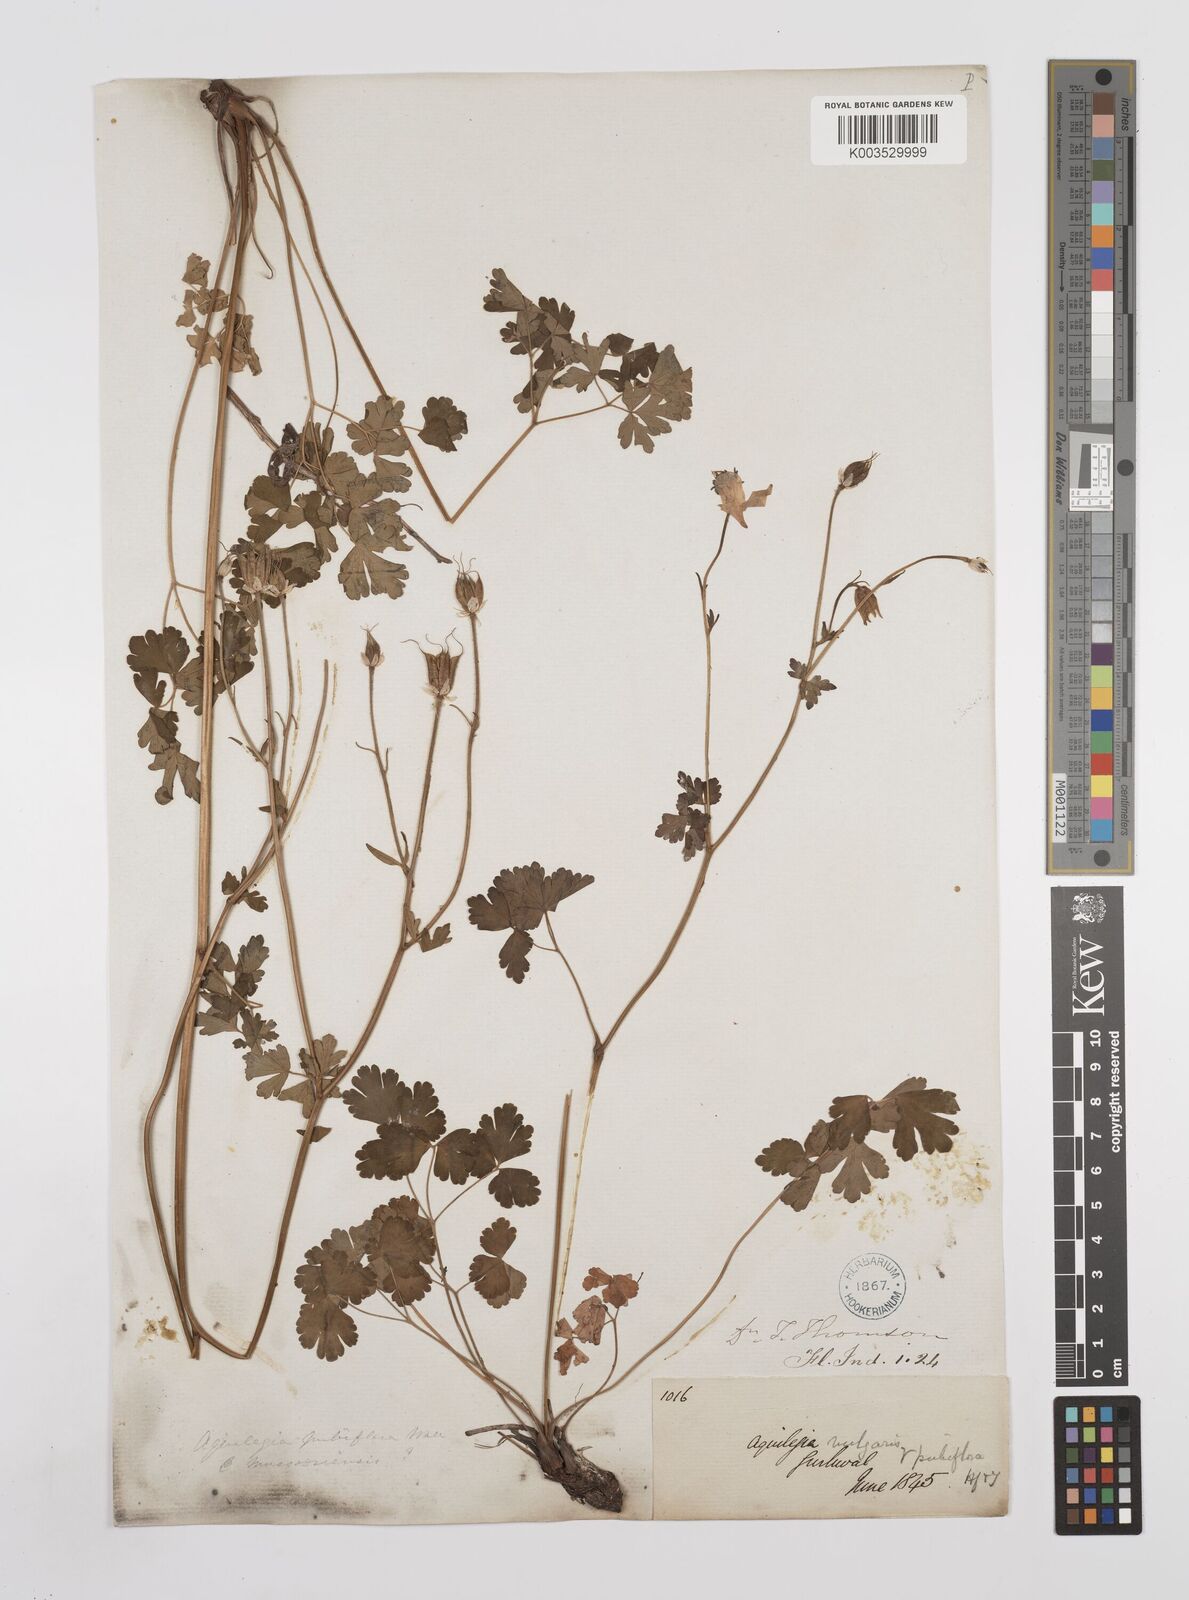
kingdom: Plantae
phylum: Tracheophyta
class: Magnoliopsida
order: Ranunculales
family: Ranunculaceae
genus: Aquilegia
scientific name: Aquilegia pubiflora
